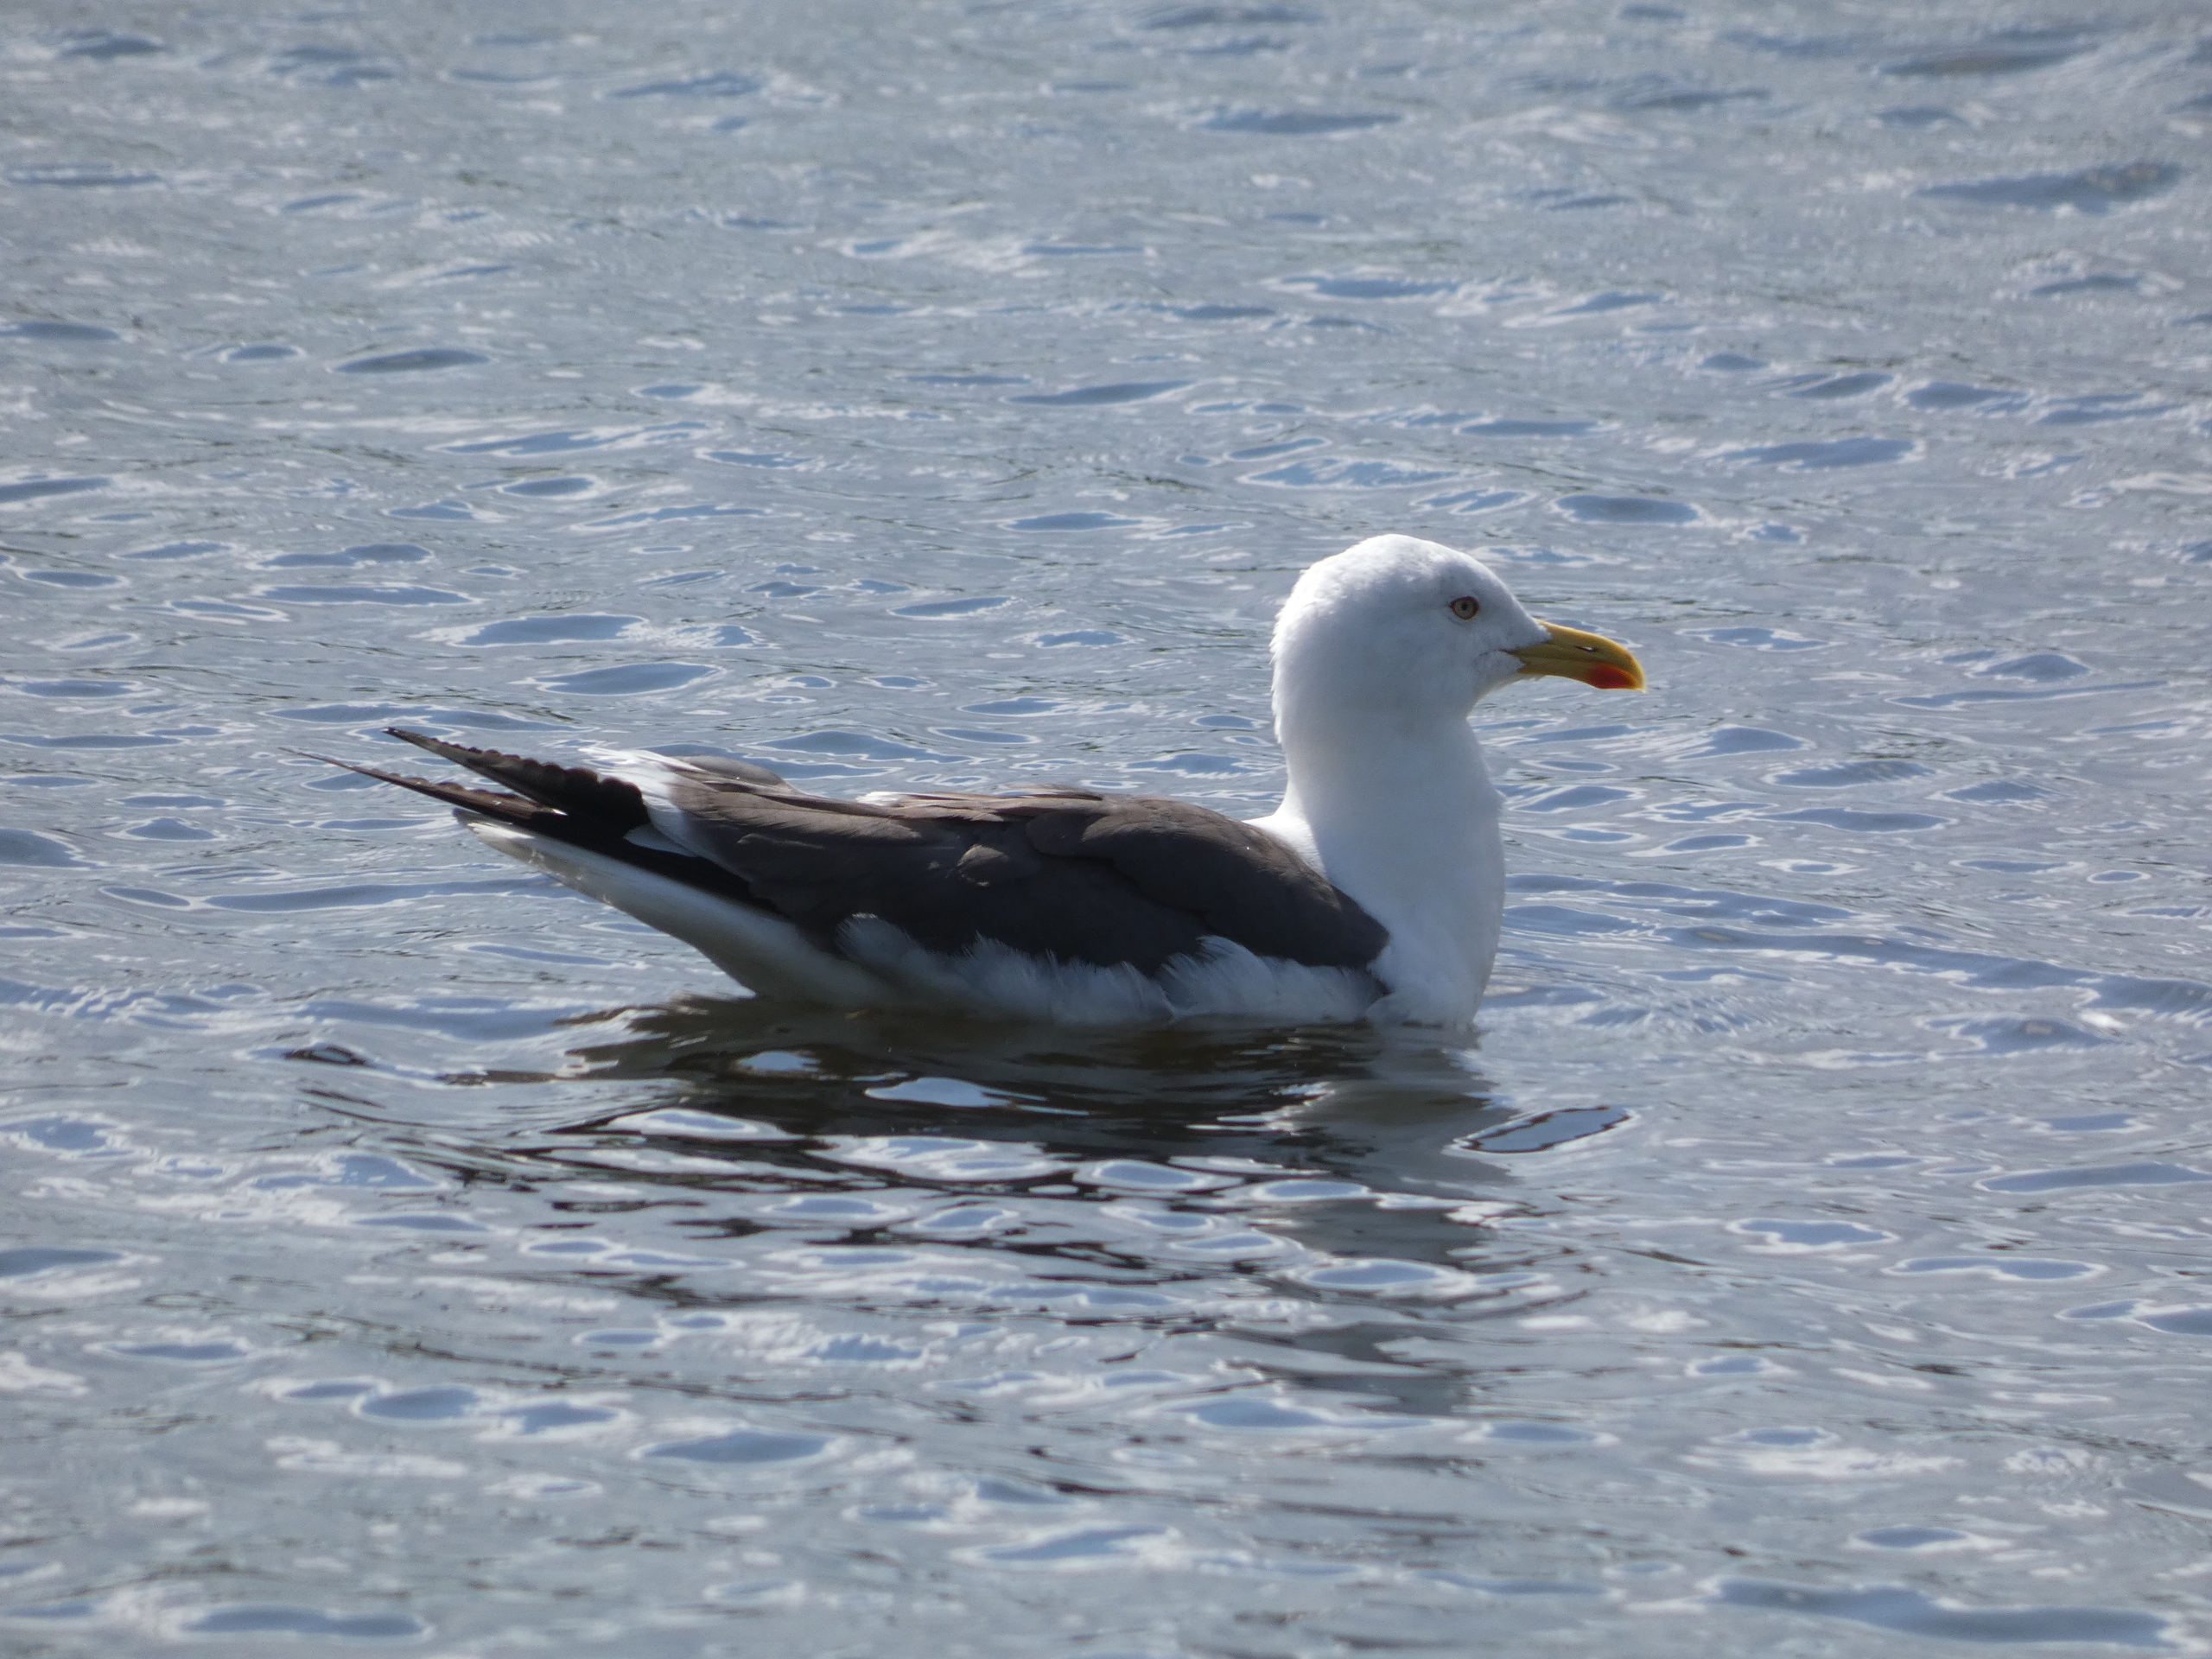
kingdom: Animalia
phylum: Chordata
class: Aves
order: Charadriiformes
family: Laridae
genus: Larus
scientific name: Larus fuscus
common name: Sildemåge
